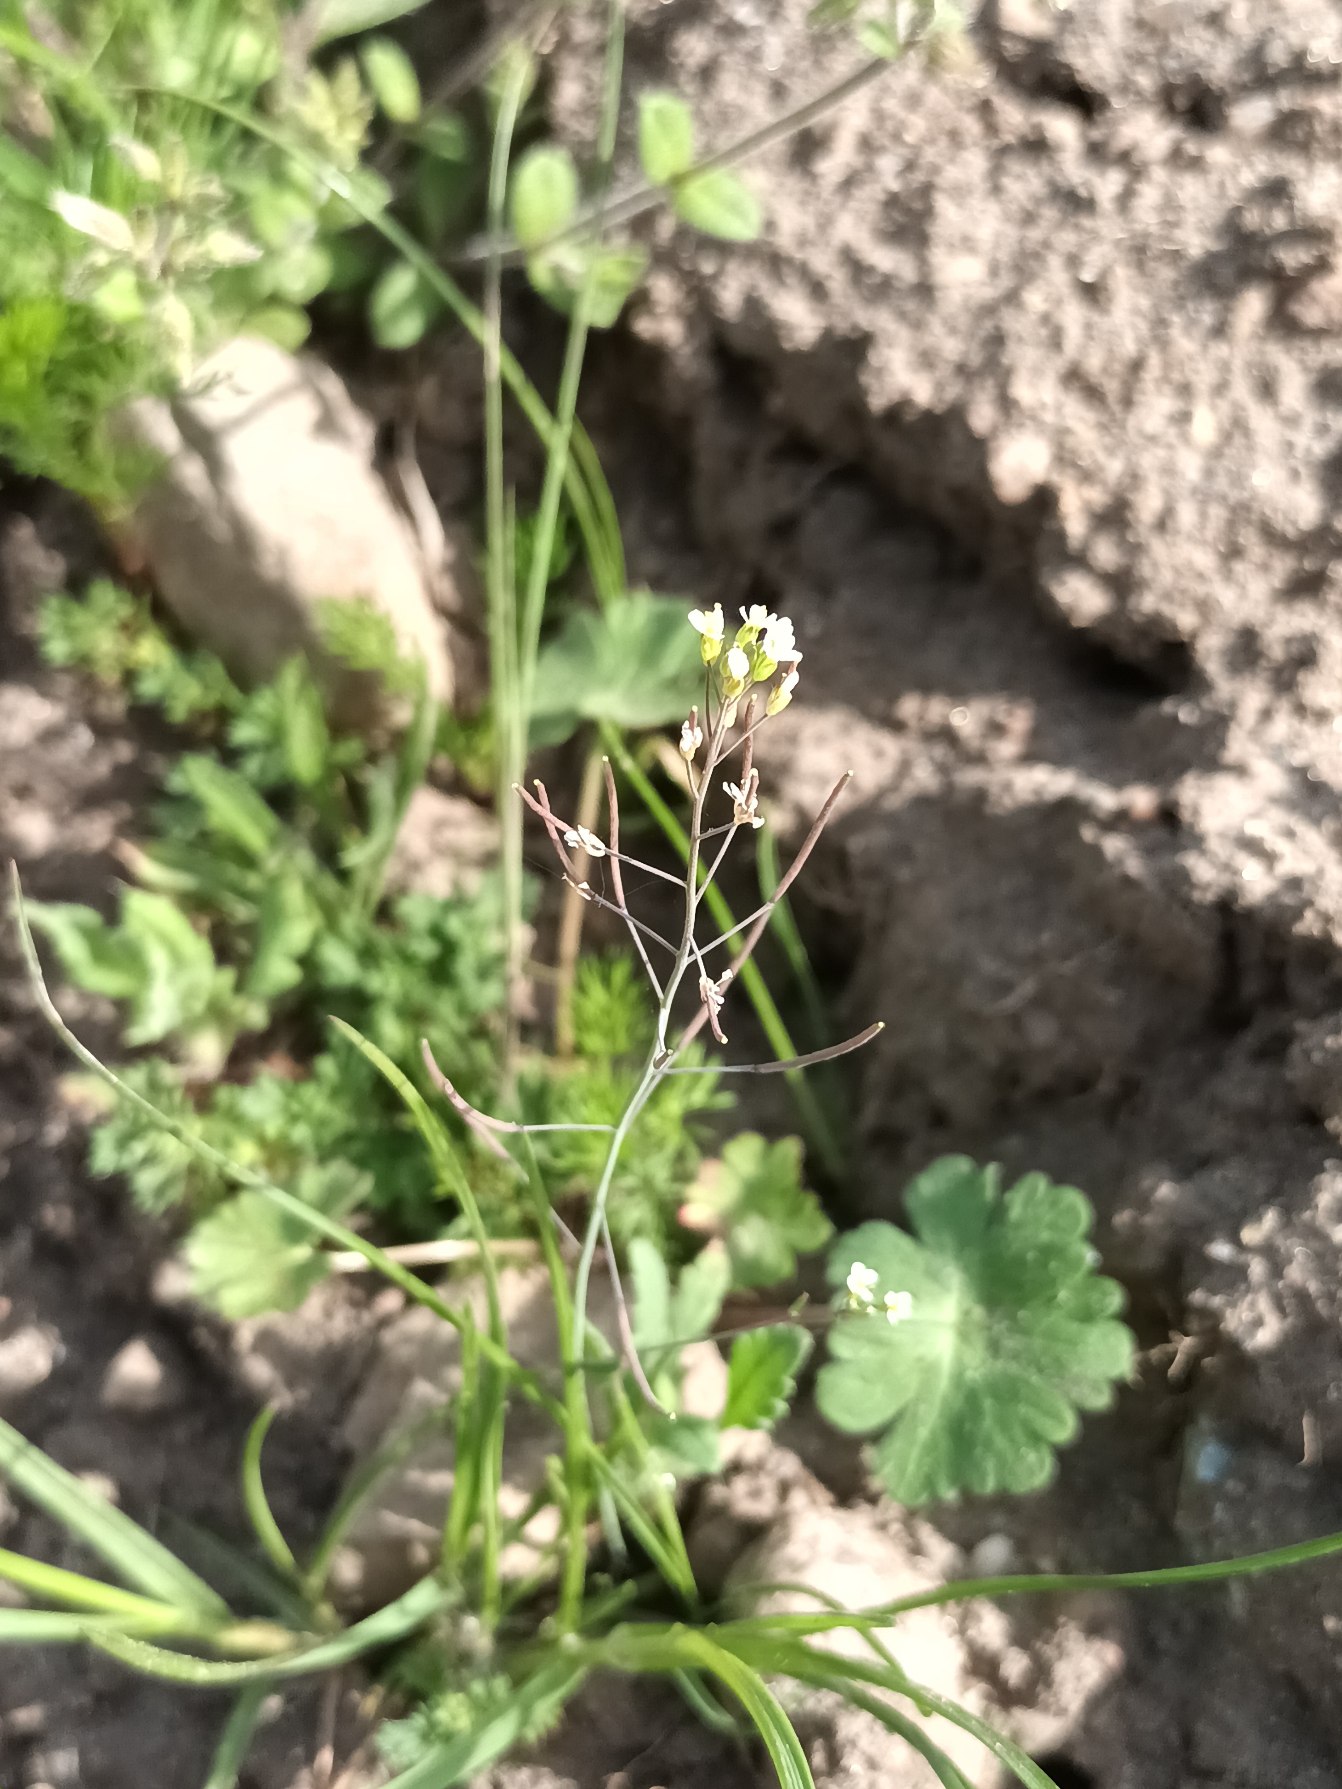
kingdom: Plantae
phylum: Tracheophyta
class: Magnoliopsida
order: Brassicales
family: Brassicaceae
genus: Arabidopsis
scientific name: Arabidopsis thaliana
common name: Almindelig gåsemad
